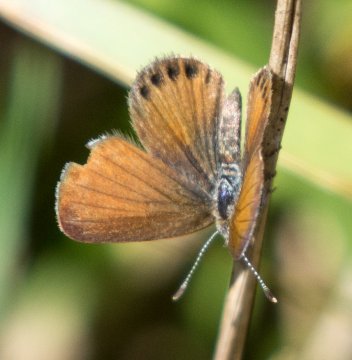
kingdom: Animalia
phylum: Arthropoda
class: Insecta
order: Lepidoptera
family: Lycaenidae
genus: Brephidium
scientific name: Brephidium isophthalma
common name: Eastern Pygmy-Blue
